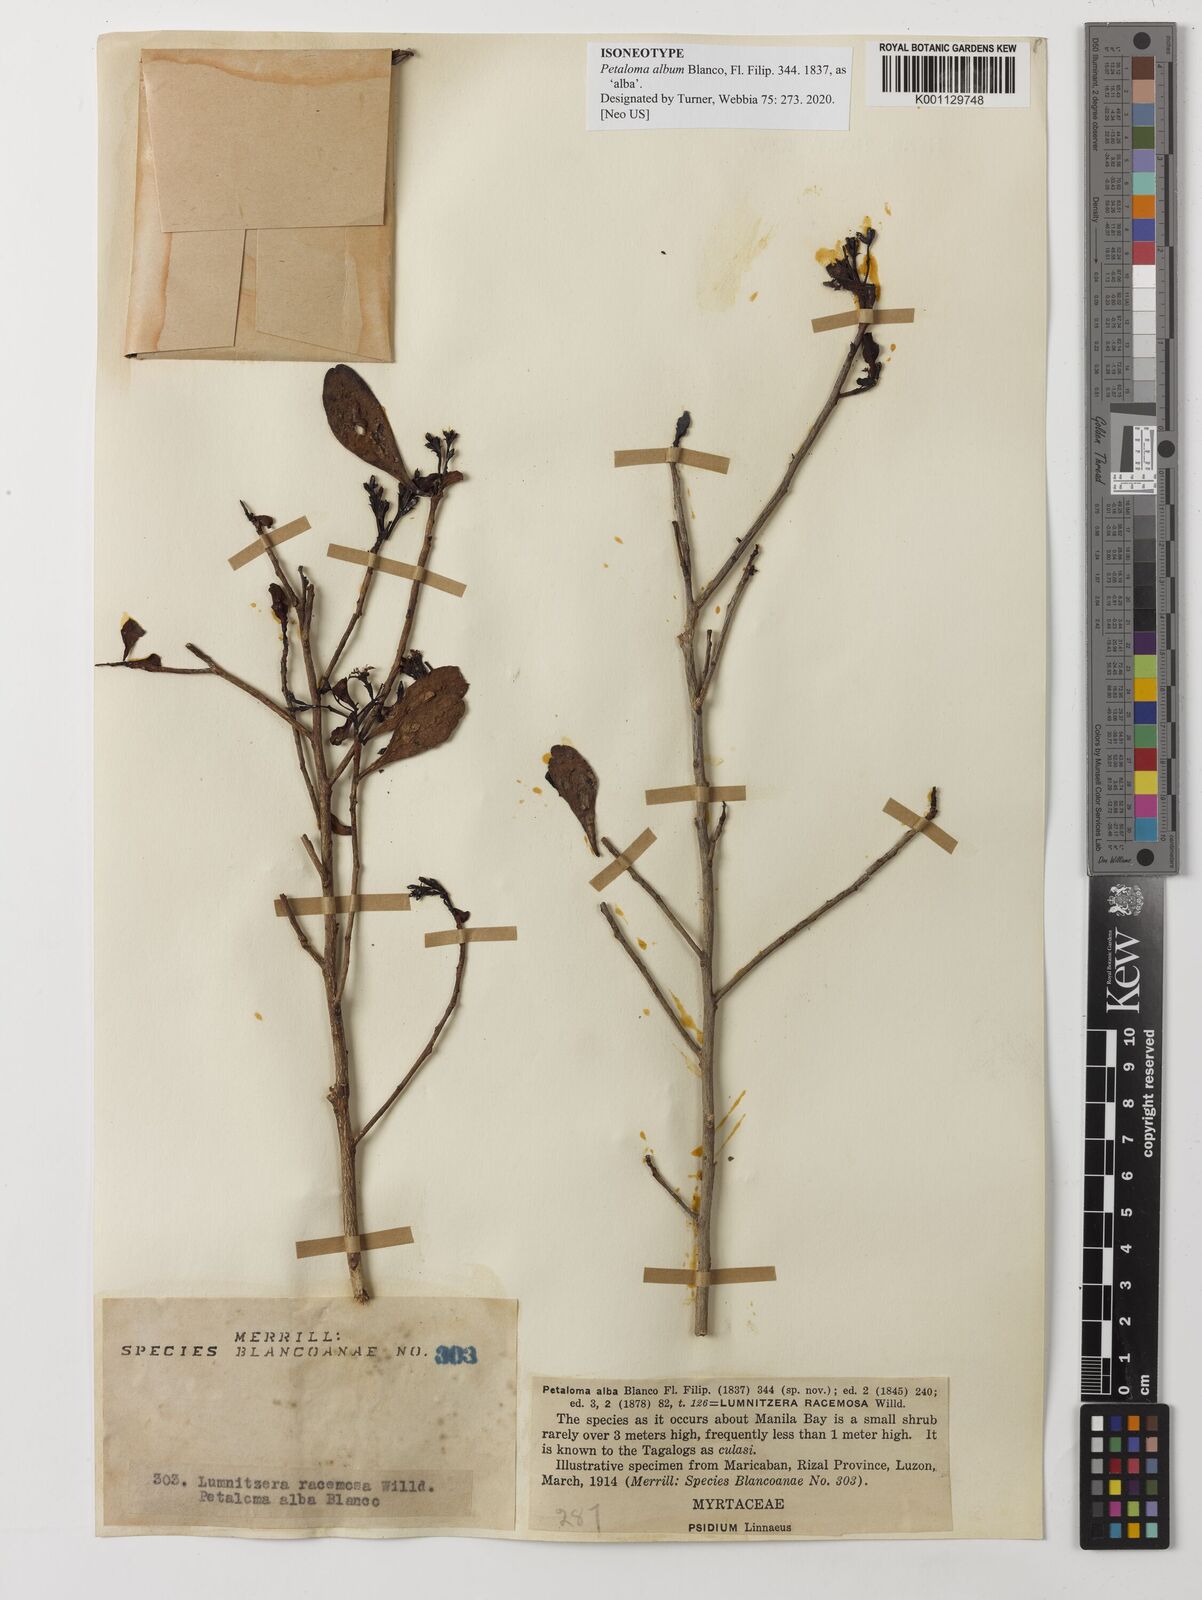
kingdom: Plantae
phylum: Tracheophyta
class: Magnoliopsida
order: Myrtales
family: Combretaceae
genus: Lumnitzera
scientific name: Lumnitzera racemosa
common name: White-flowered black mangrove
